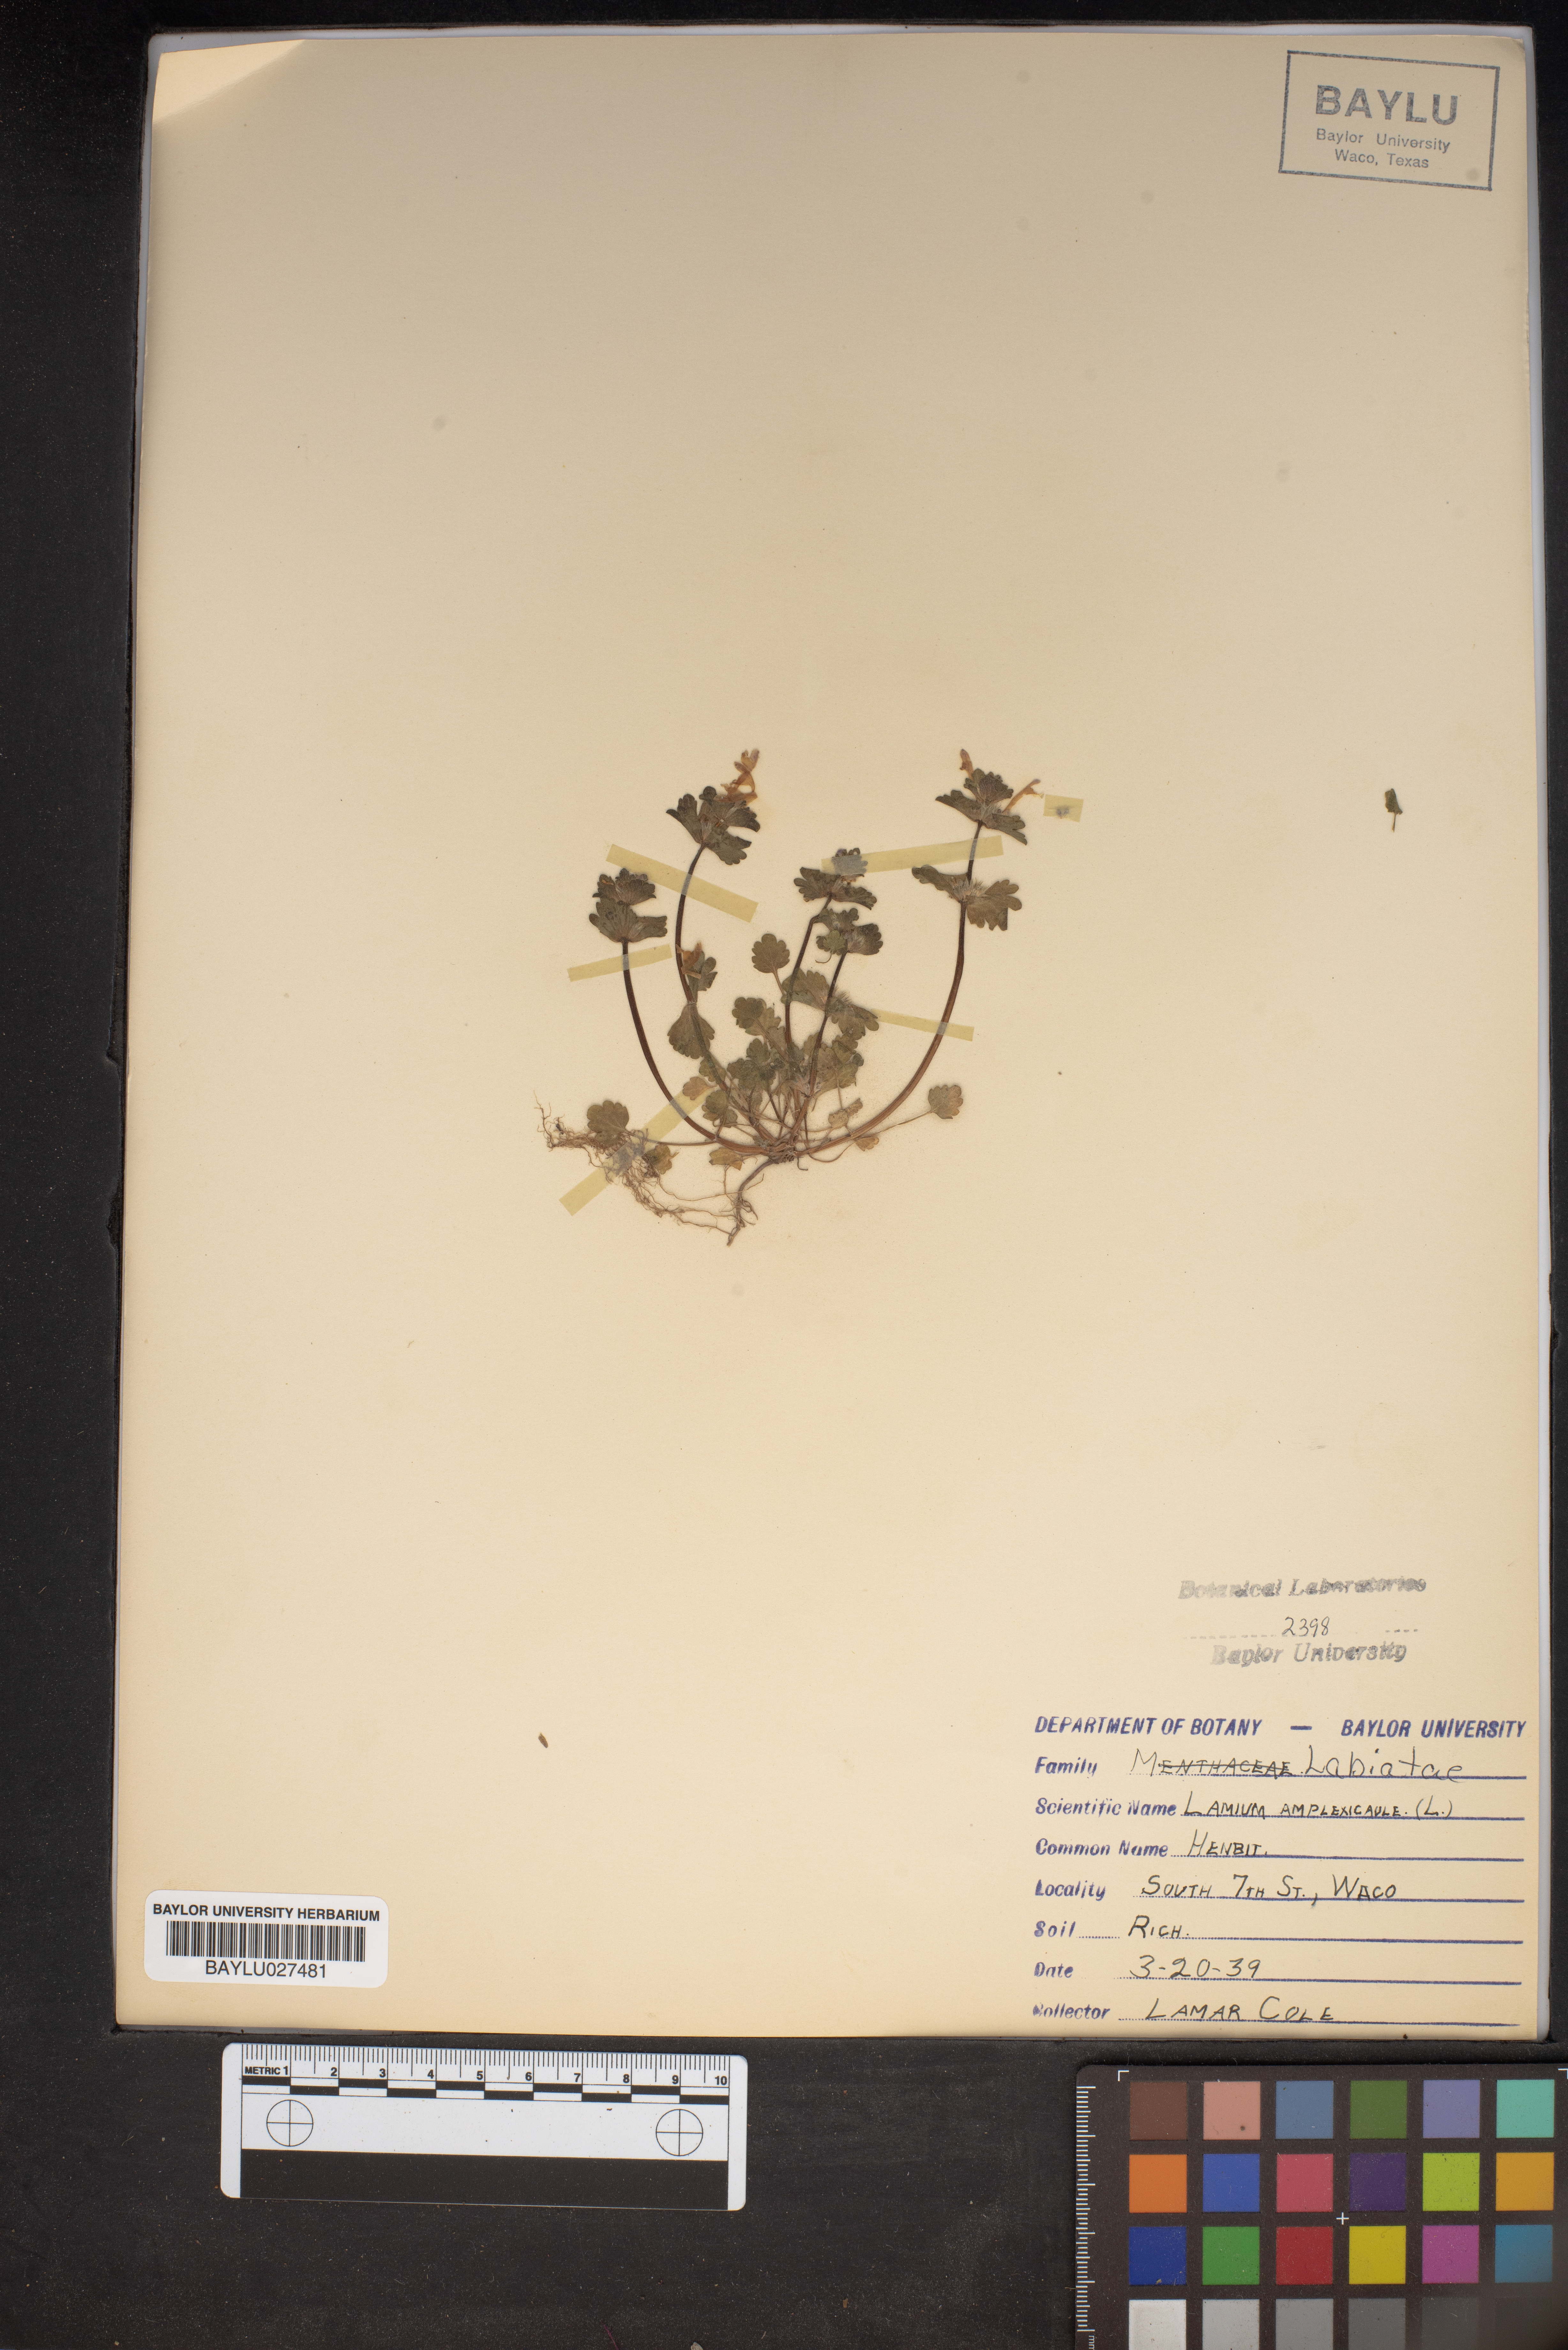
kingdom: Plantae
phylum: Tracheophyta
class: Magnoliopsida
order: Lamiales
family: Lamiaceae
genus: Lamium
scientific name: Lamium amplexicaule
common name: Henbit dead-nettle
